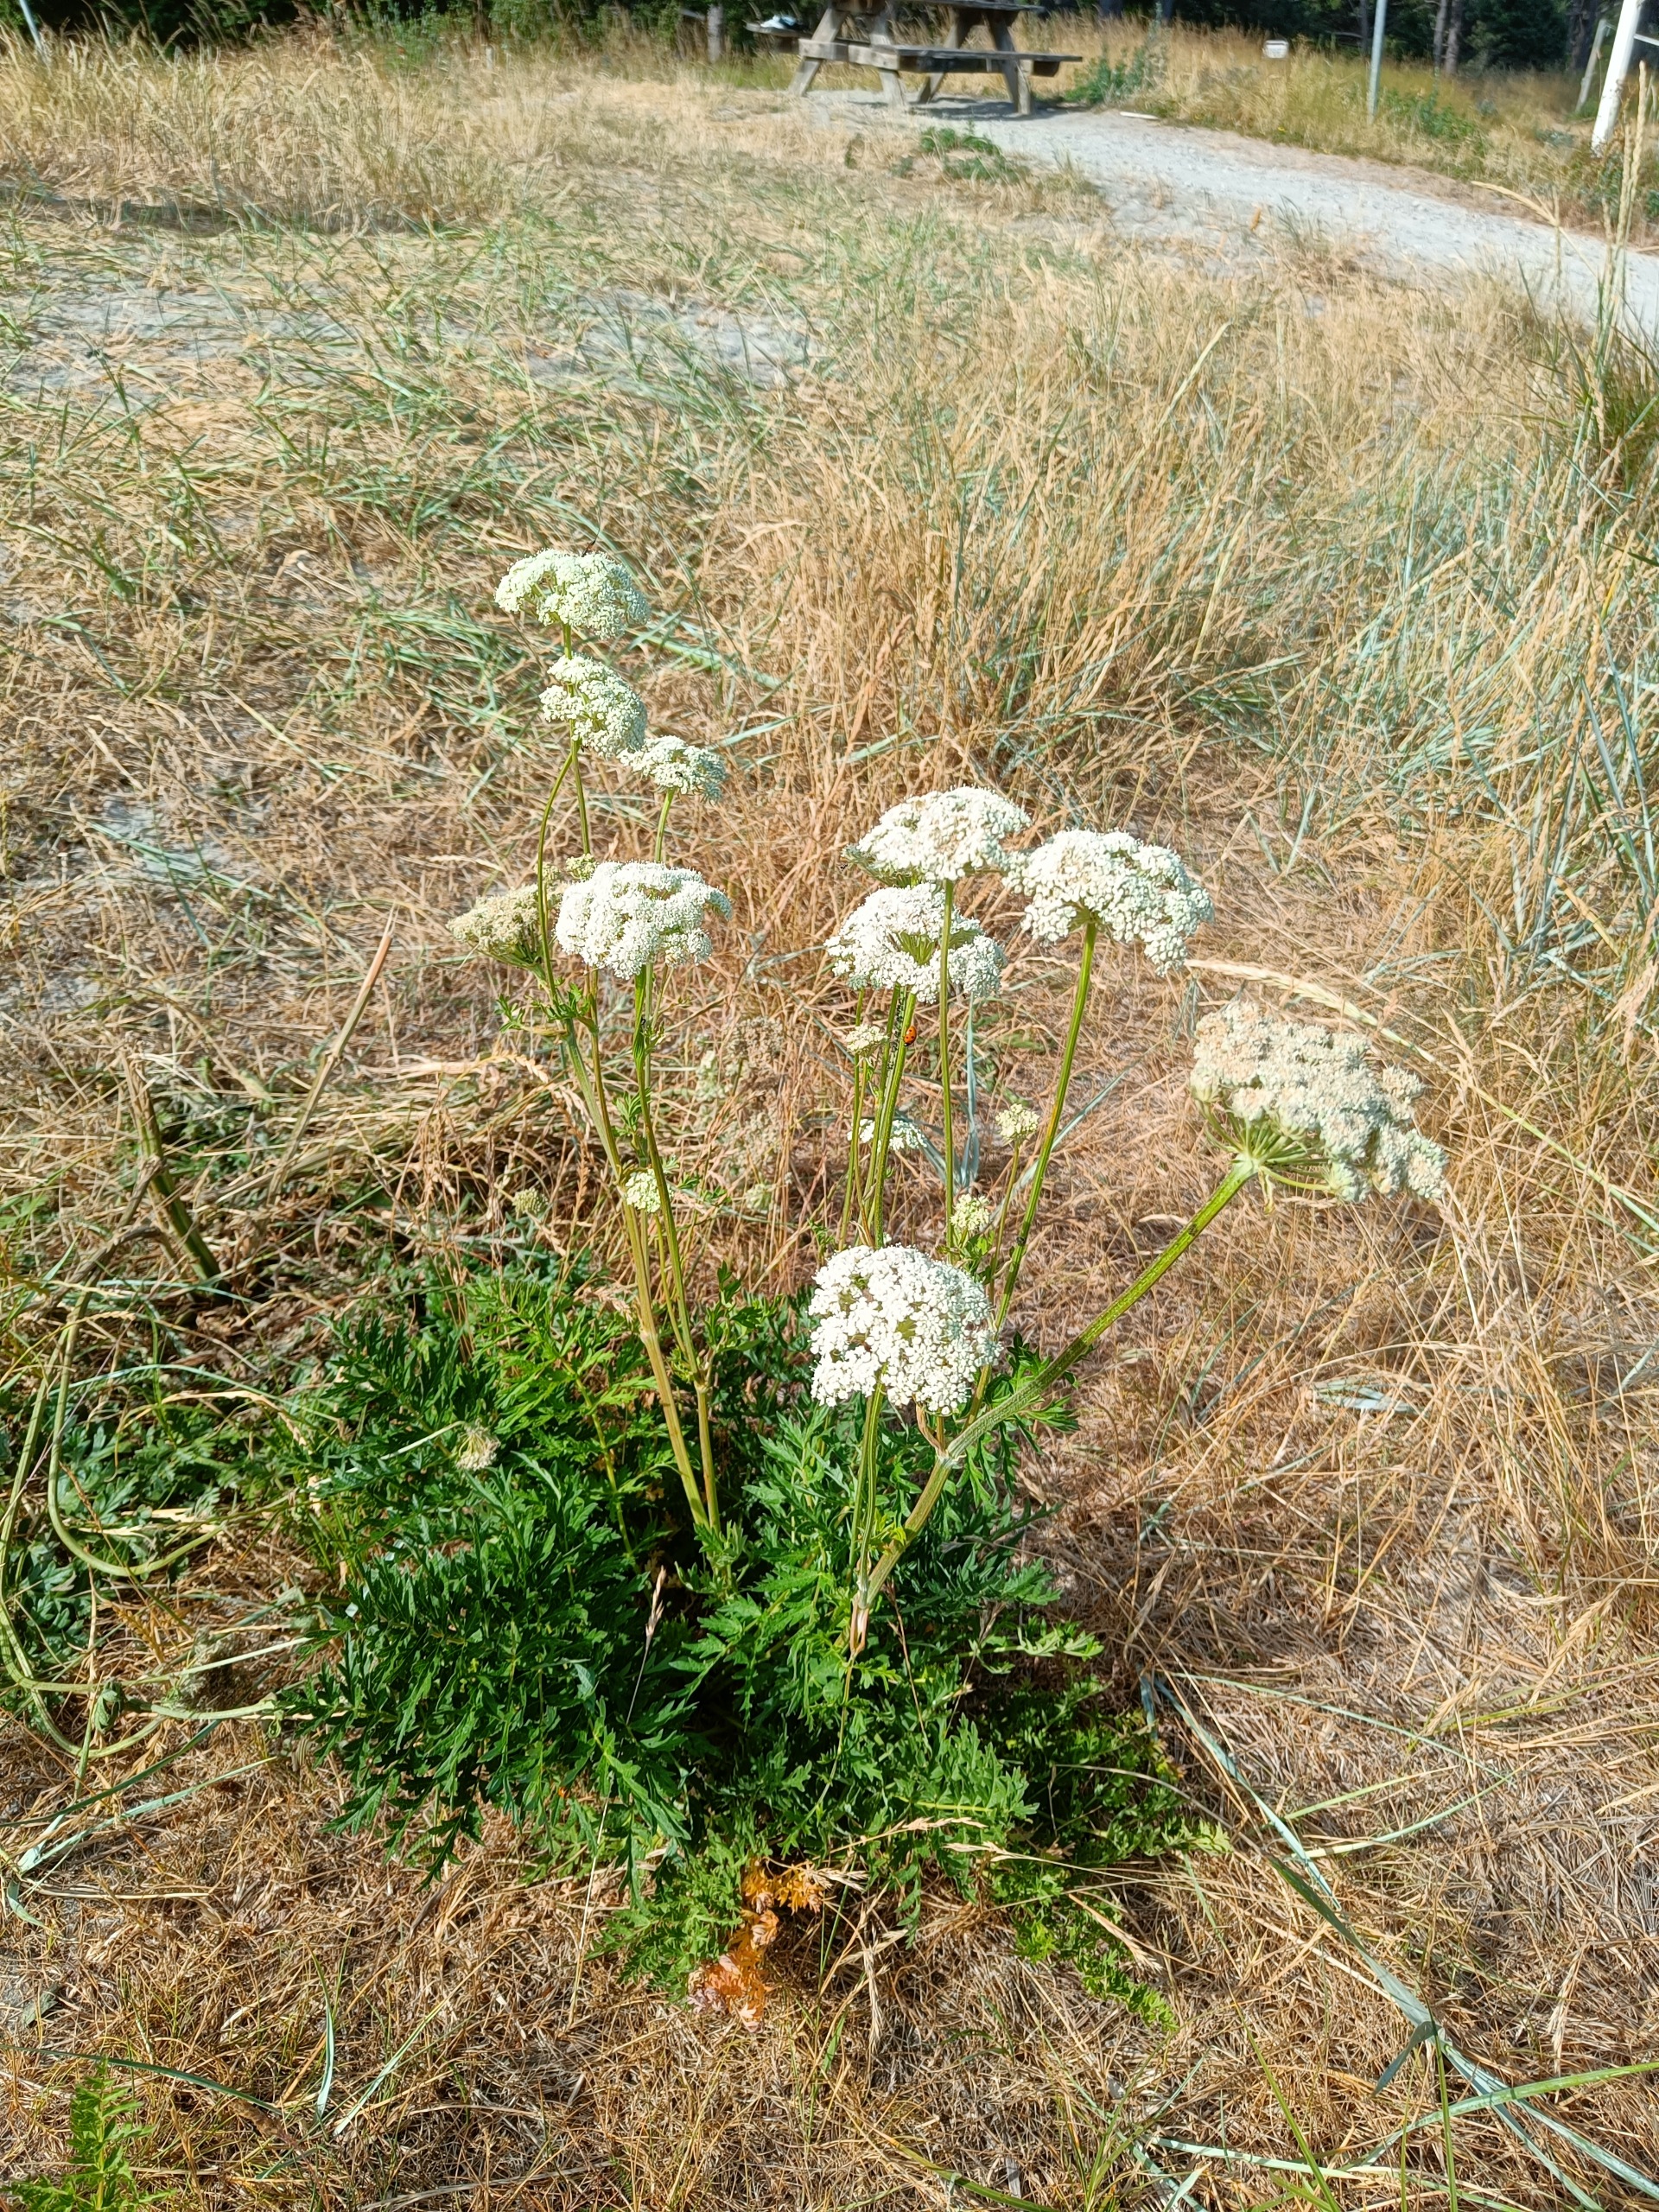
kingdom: Plantae
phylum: Tracheophyta
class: Magnoliopsida
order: Apiales
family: Apiaceae
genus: Seseli
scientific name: Seseli libanotis
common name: Hjorterod
